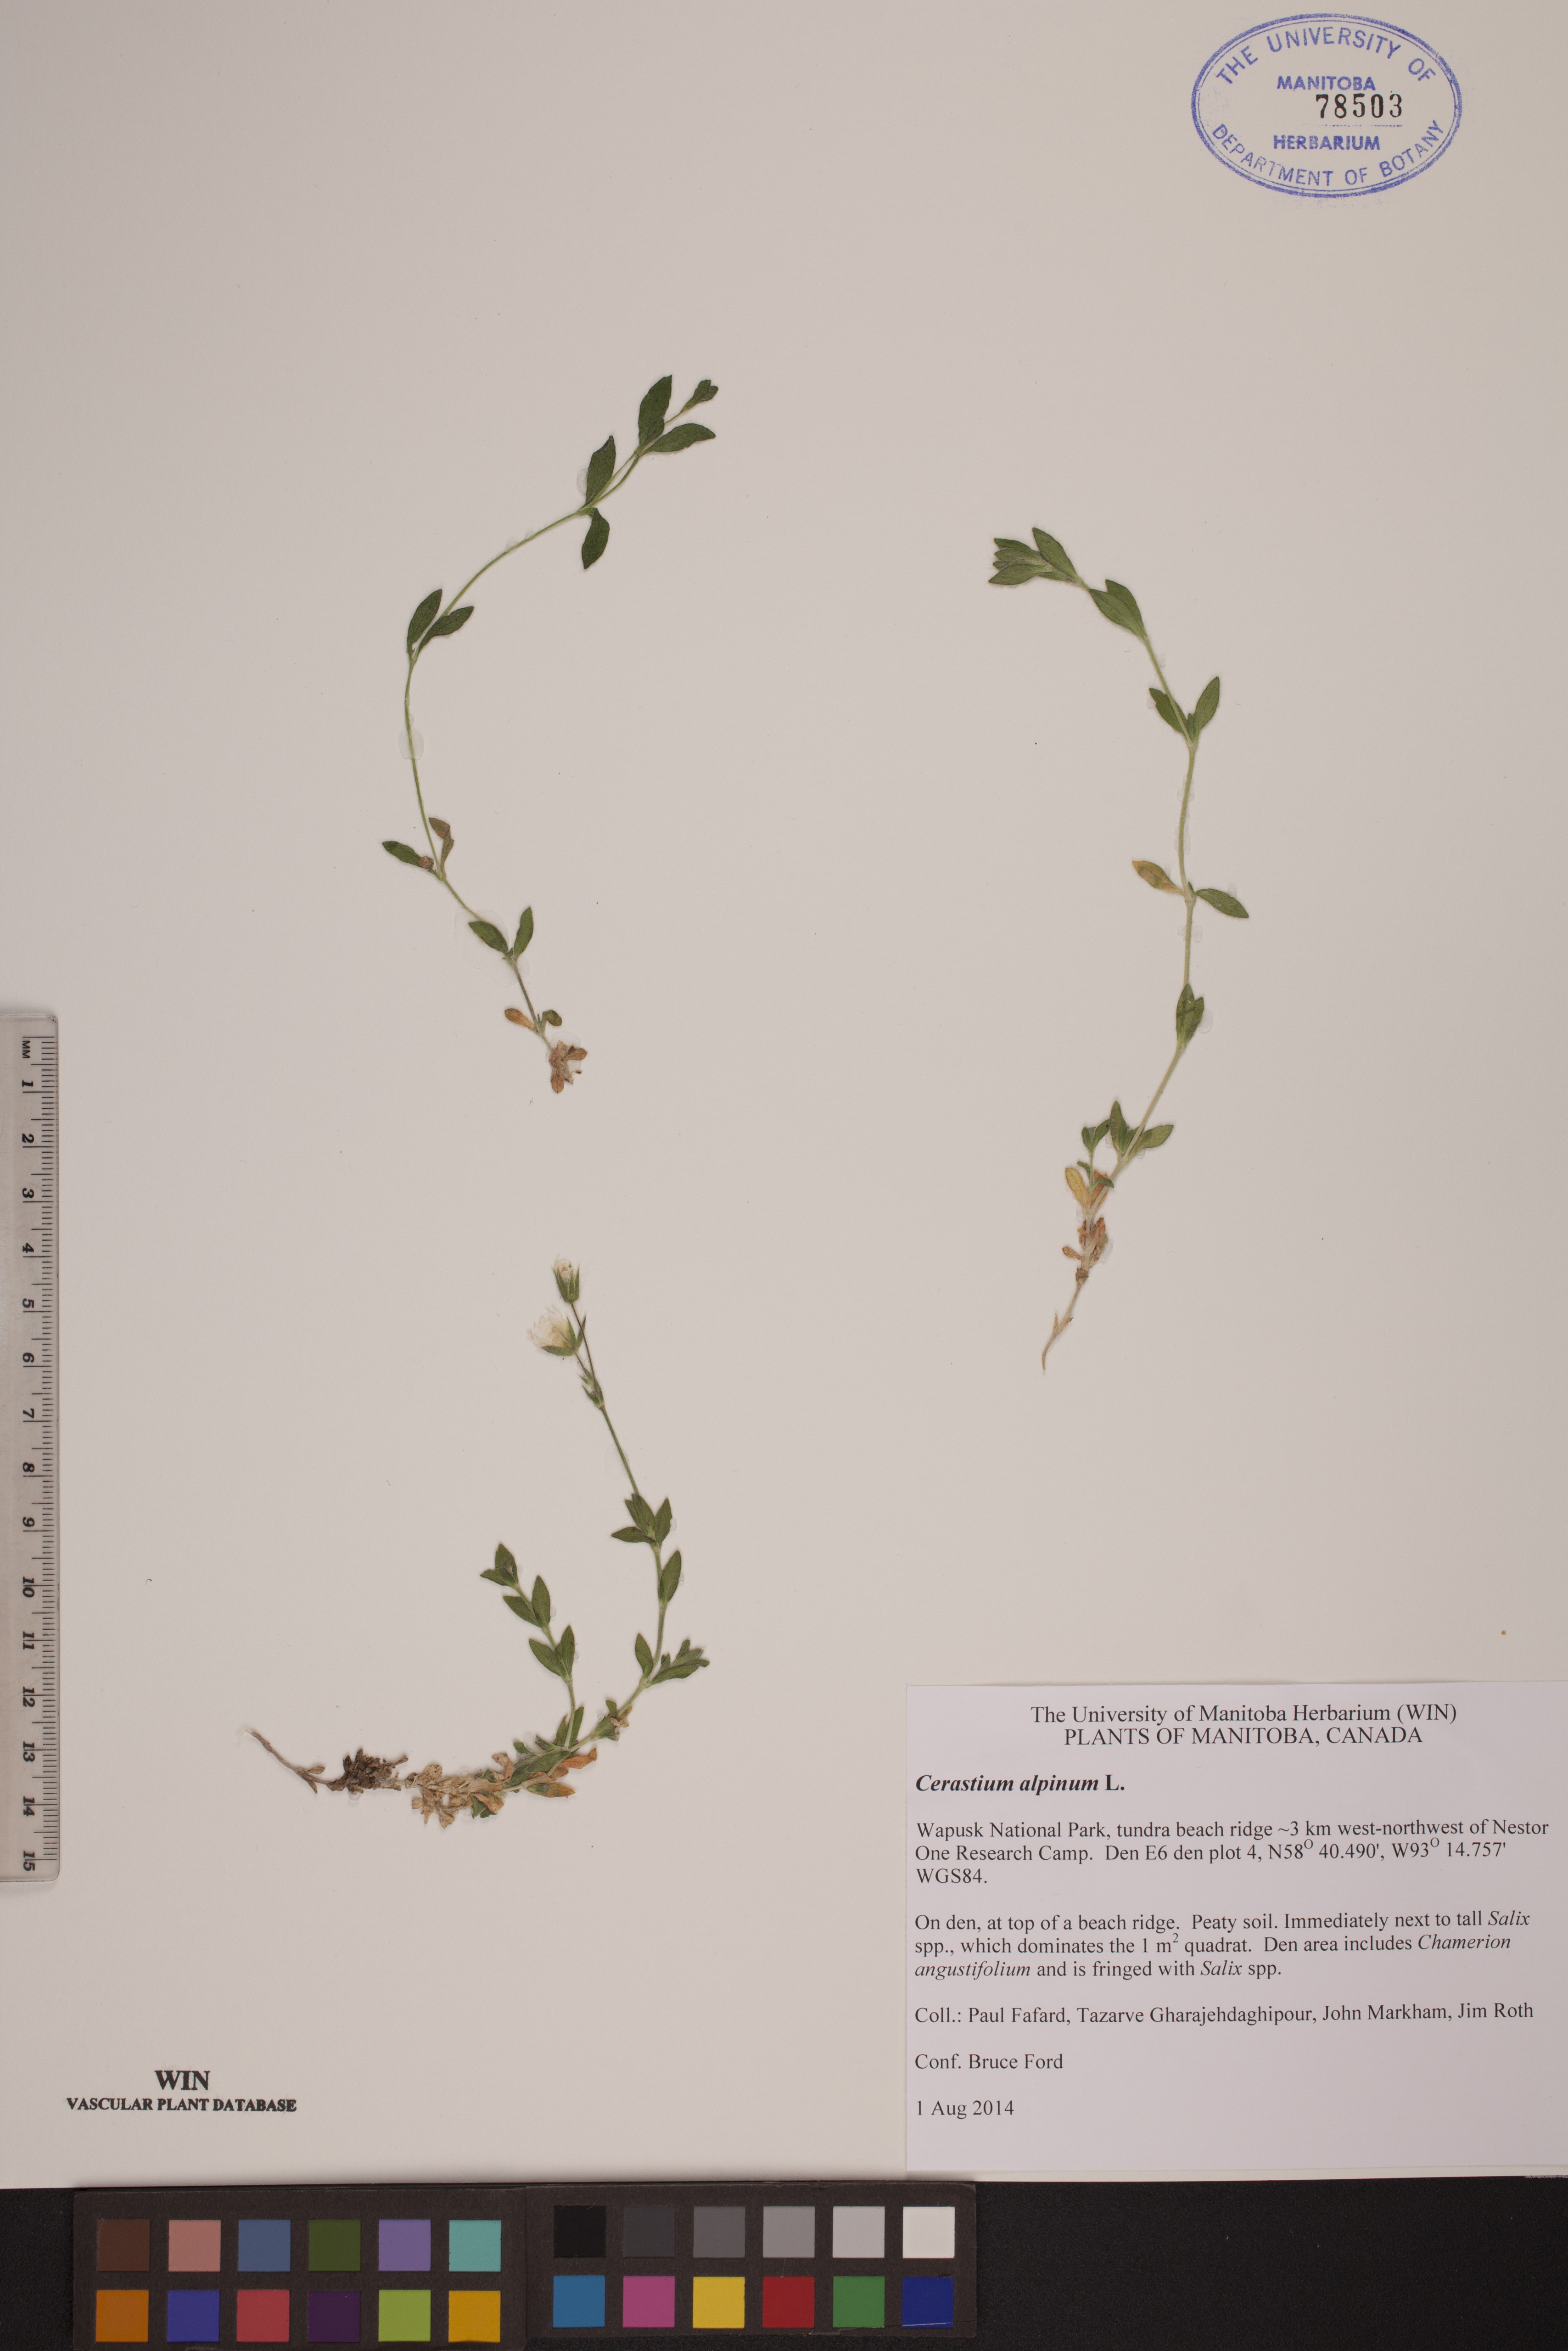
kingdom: Plantae
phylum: Tracheophyta
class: Magnoliopsida
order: Caryophyllales
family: Caryophyllaceae
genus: Cerastium
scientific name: Cerastium alpinum
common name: Alpine mouse-ear
